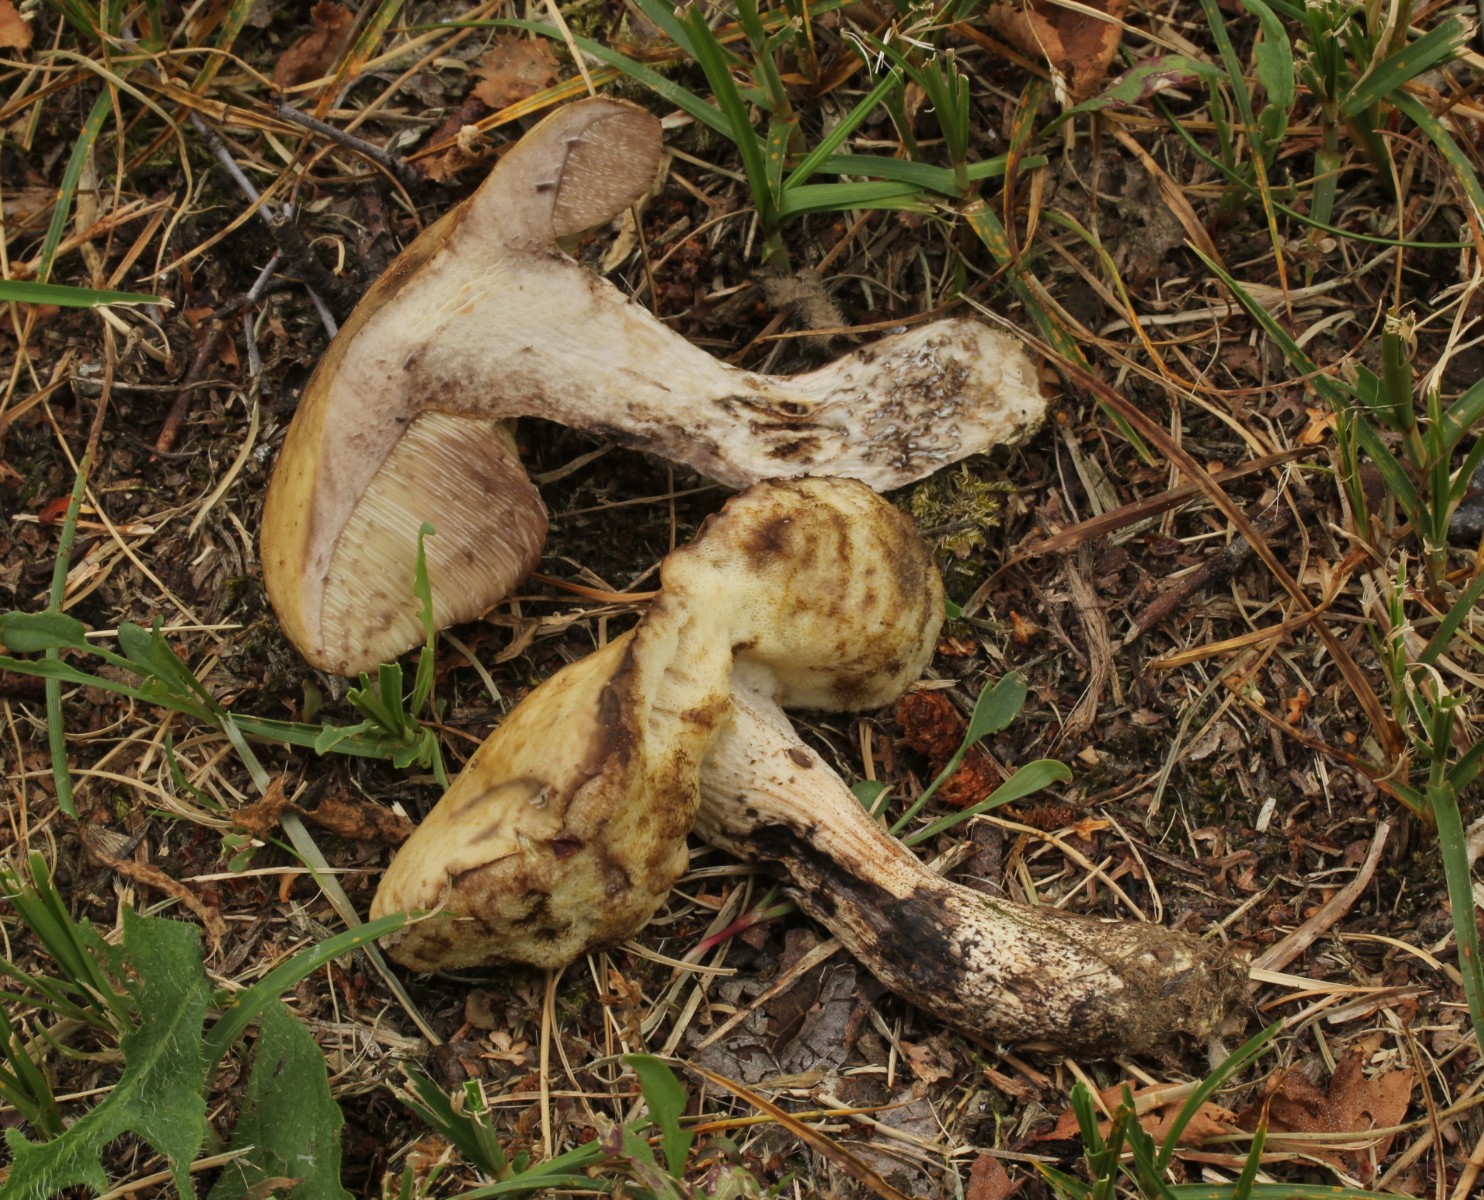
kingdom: Fungi
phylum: Basidiomycota
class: Agaricomycetes
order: Boletales
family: Boletaceae
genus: Leccinellum
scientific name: Leccinellum pseudoscabrum
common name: avnbøg-skælrørhat
